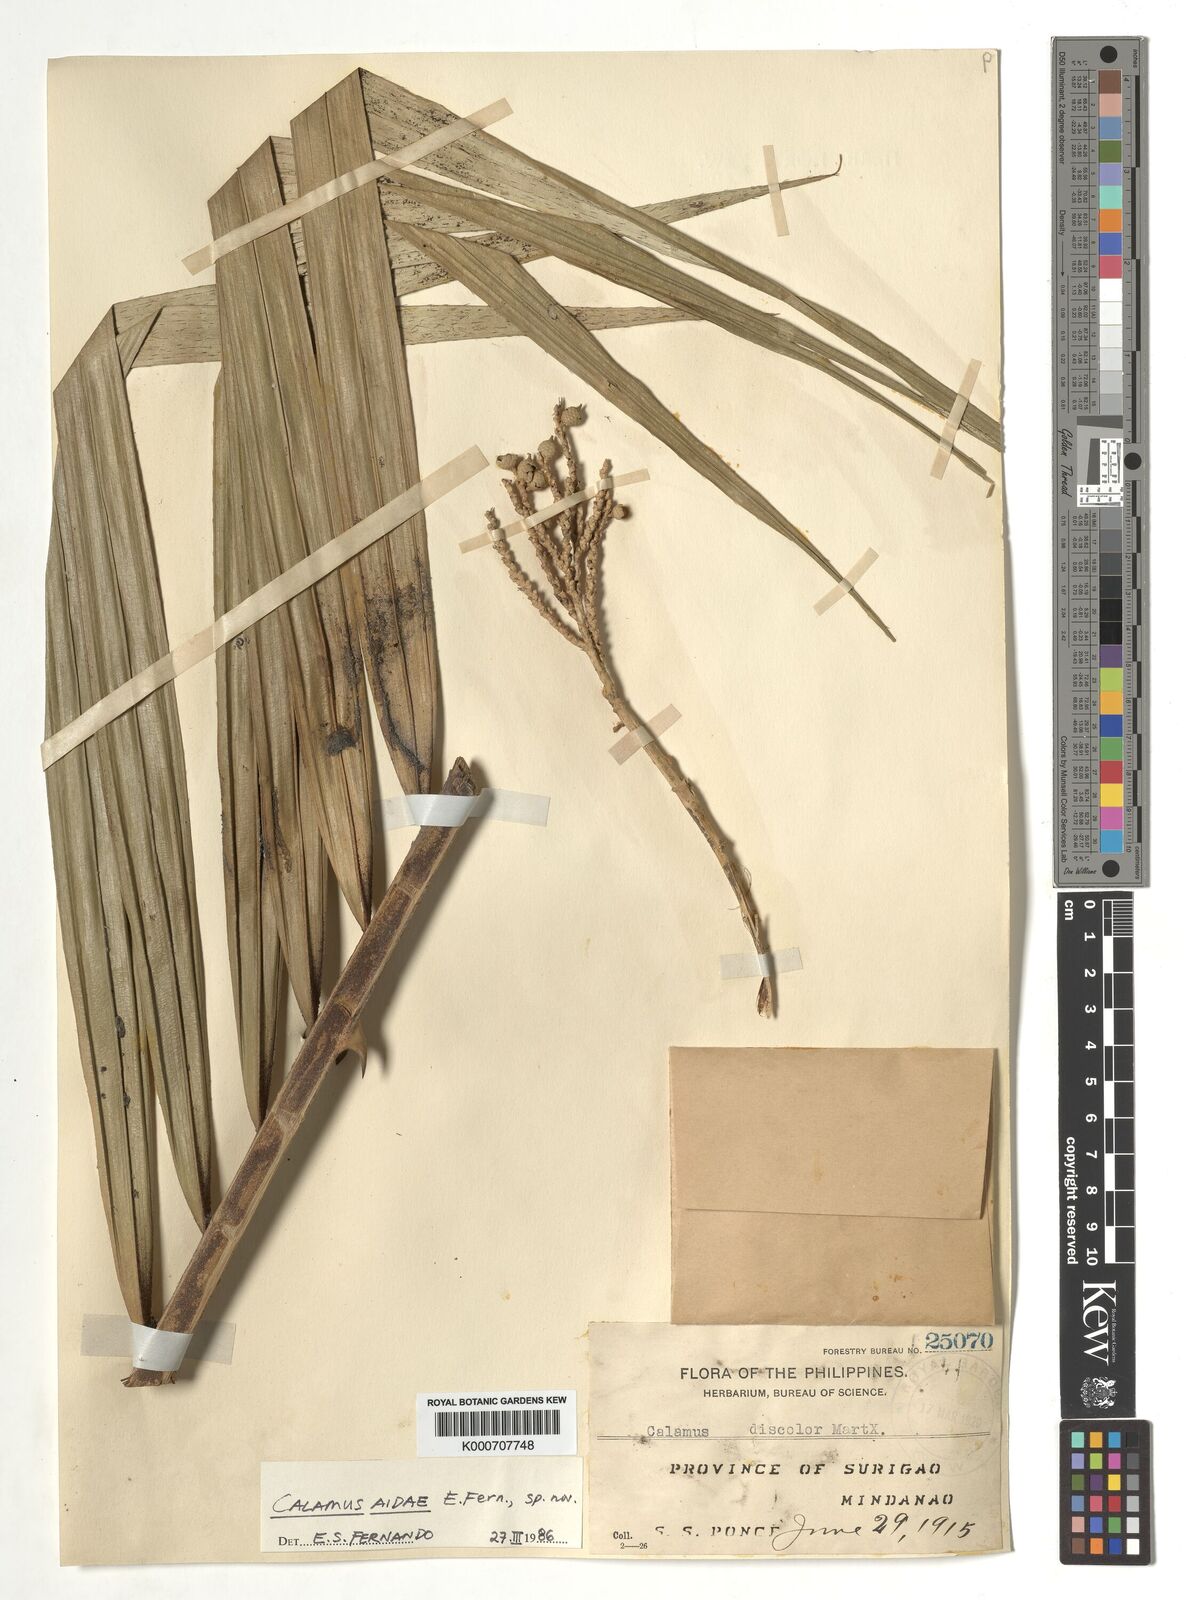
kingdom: Plantae
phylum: Tracheophyta
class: Liliopsida
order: Arecales
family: Arecaceae
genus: Calamus
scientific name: Calamus aidae
